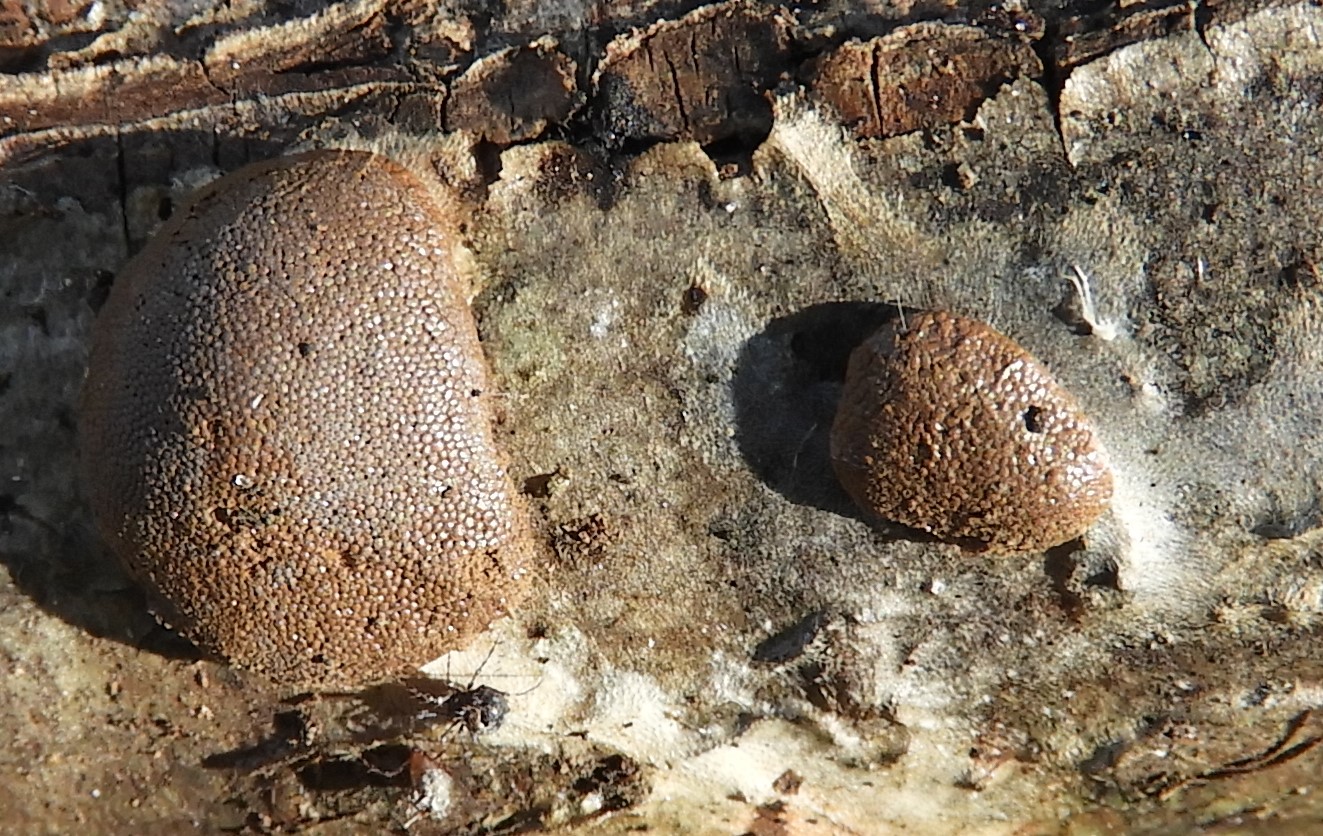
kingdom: Protozoa
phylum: Mycetozoa
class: Myxomycetes
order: Trichiales
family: Dictydiaethaliaceae
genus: Dictydiaethalium
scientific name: Dictydiaethalium plumbeum
